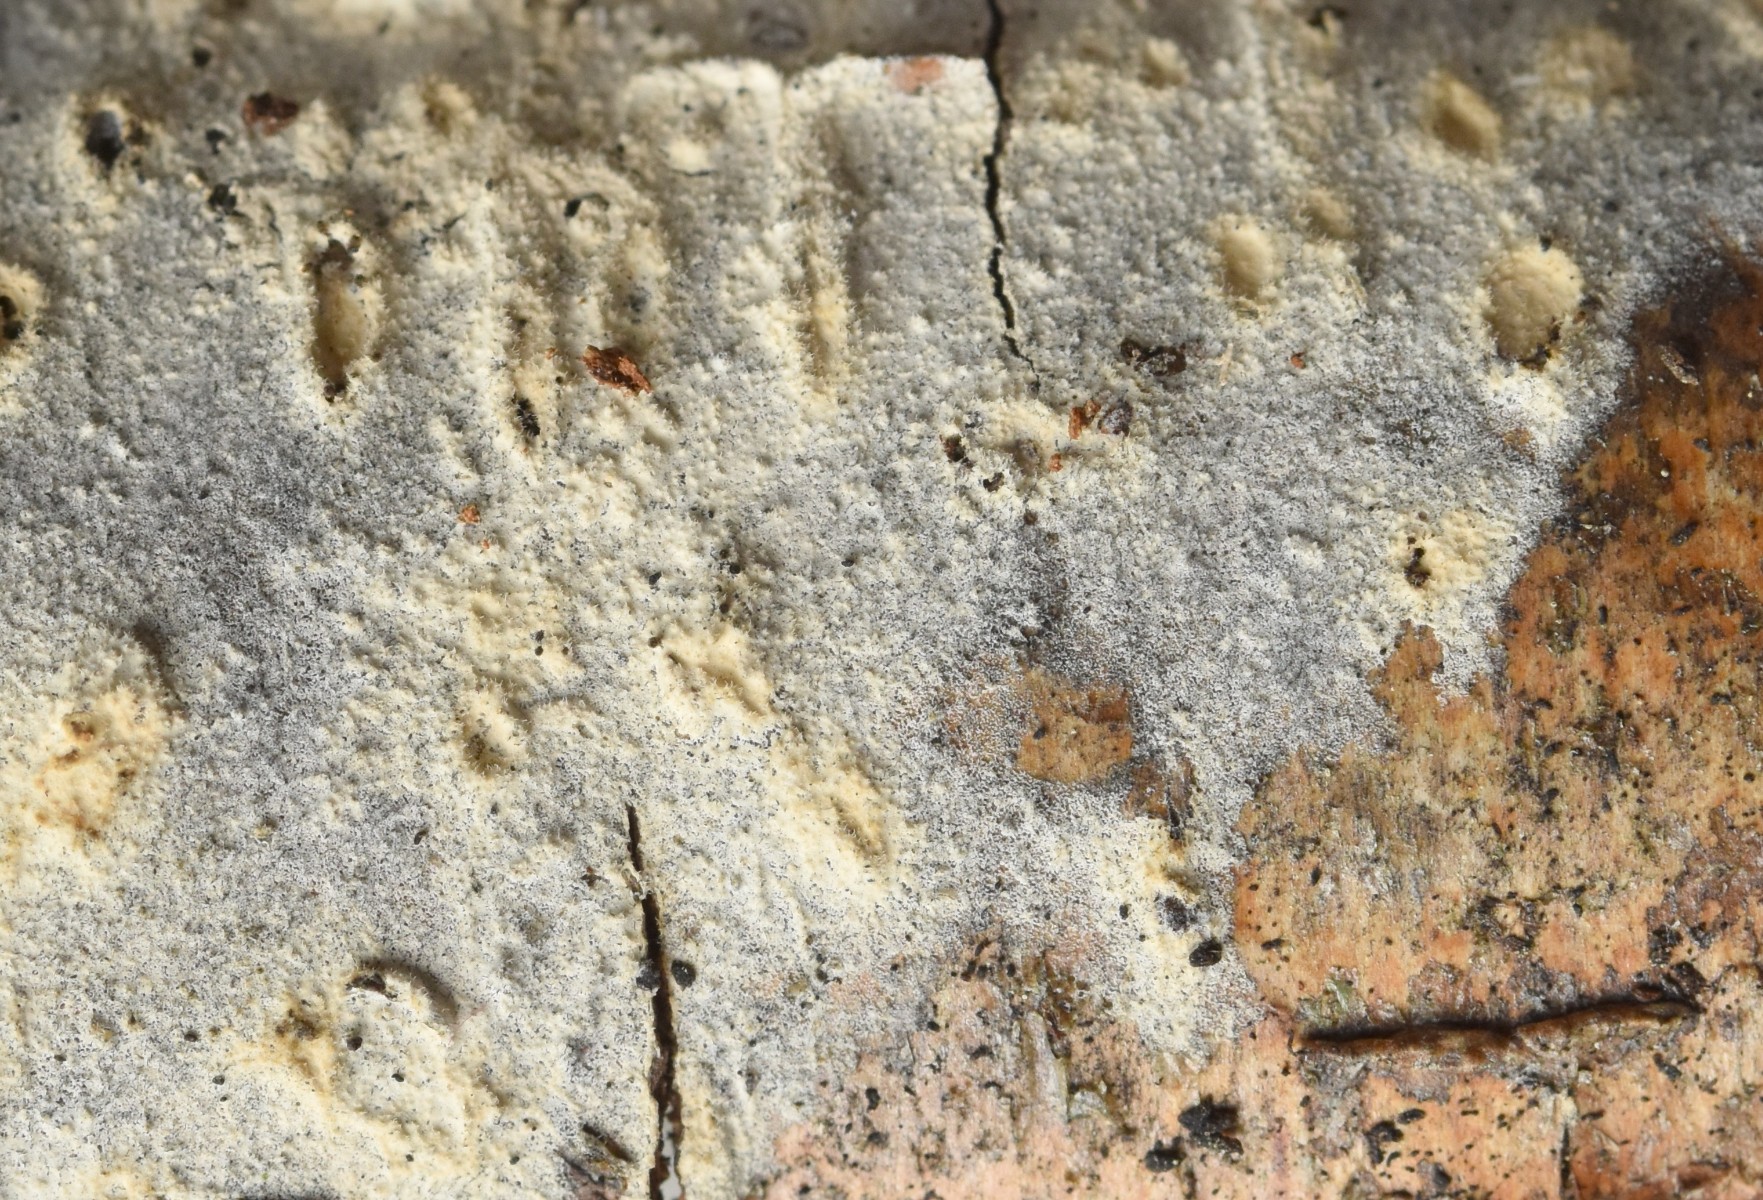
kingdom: Fungi
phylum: Basidiomycota
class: Agaricomycetes
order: Polyporales
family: Hyphodermataceae
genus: Hyphoderma
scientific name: Hyphoderma setigerum
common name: håret kalkskind
